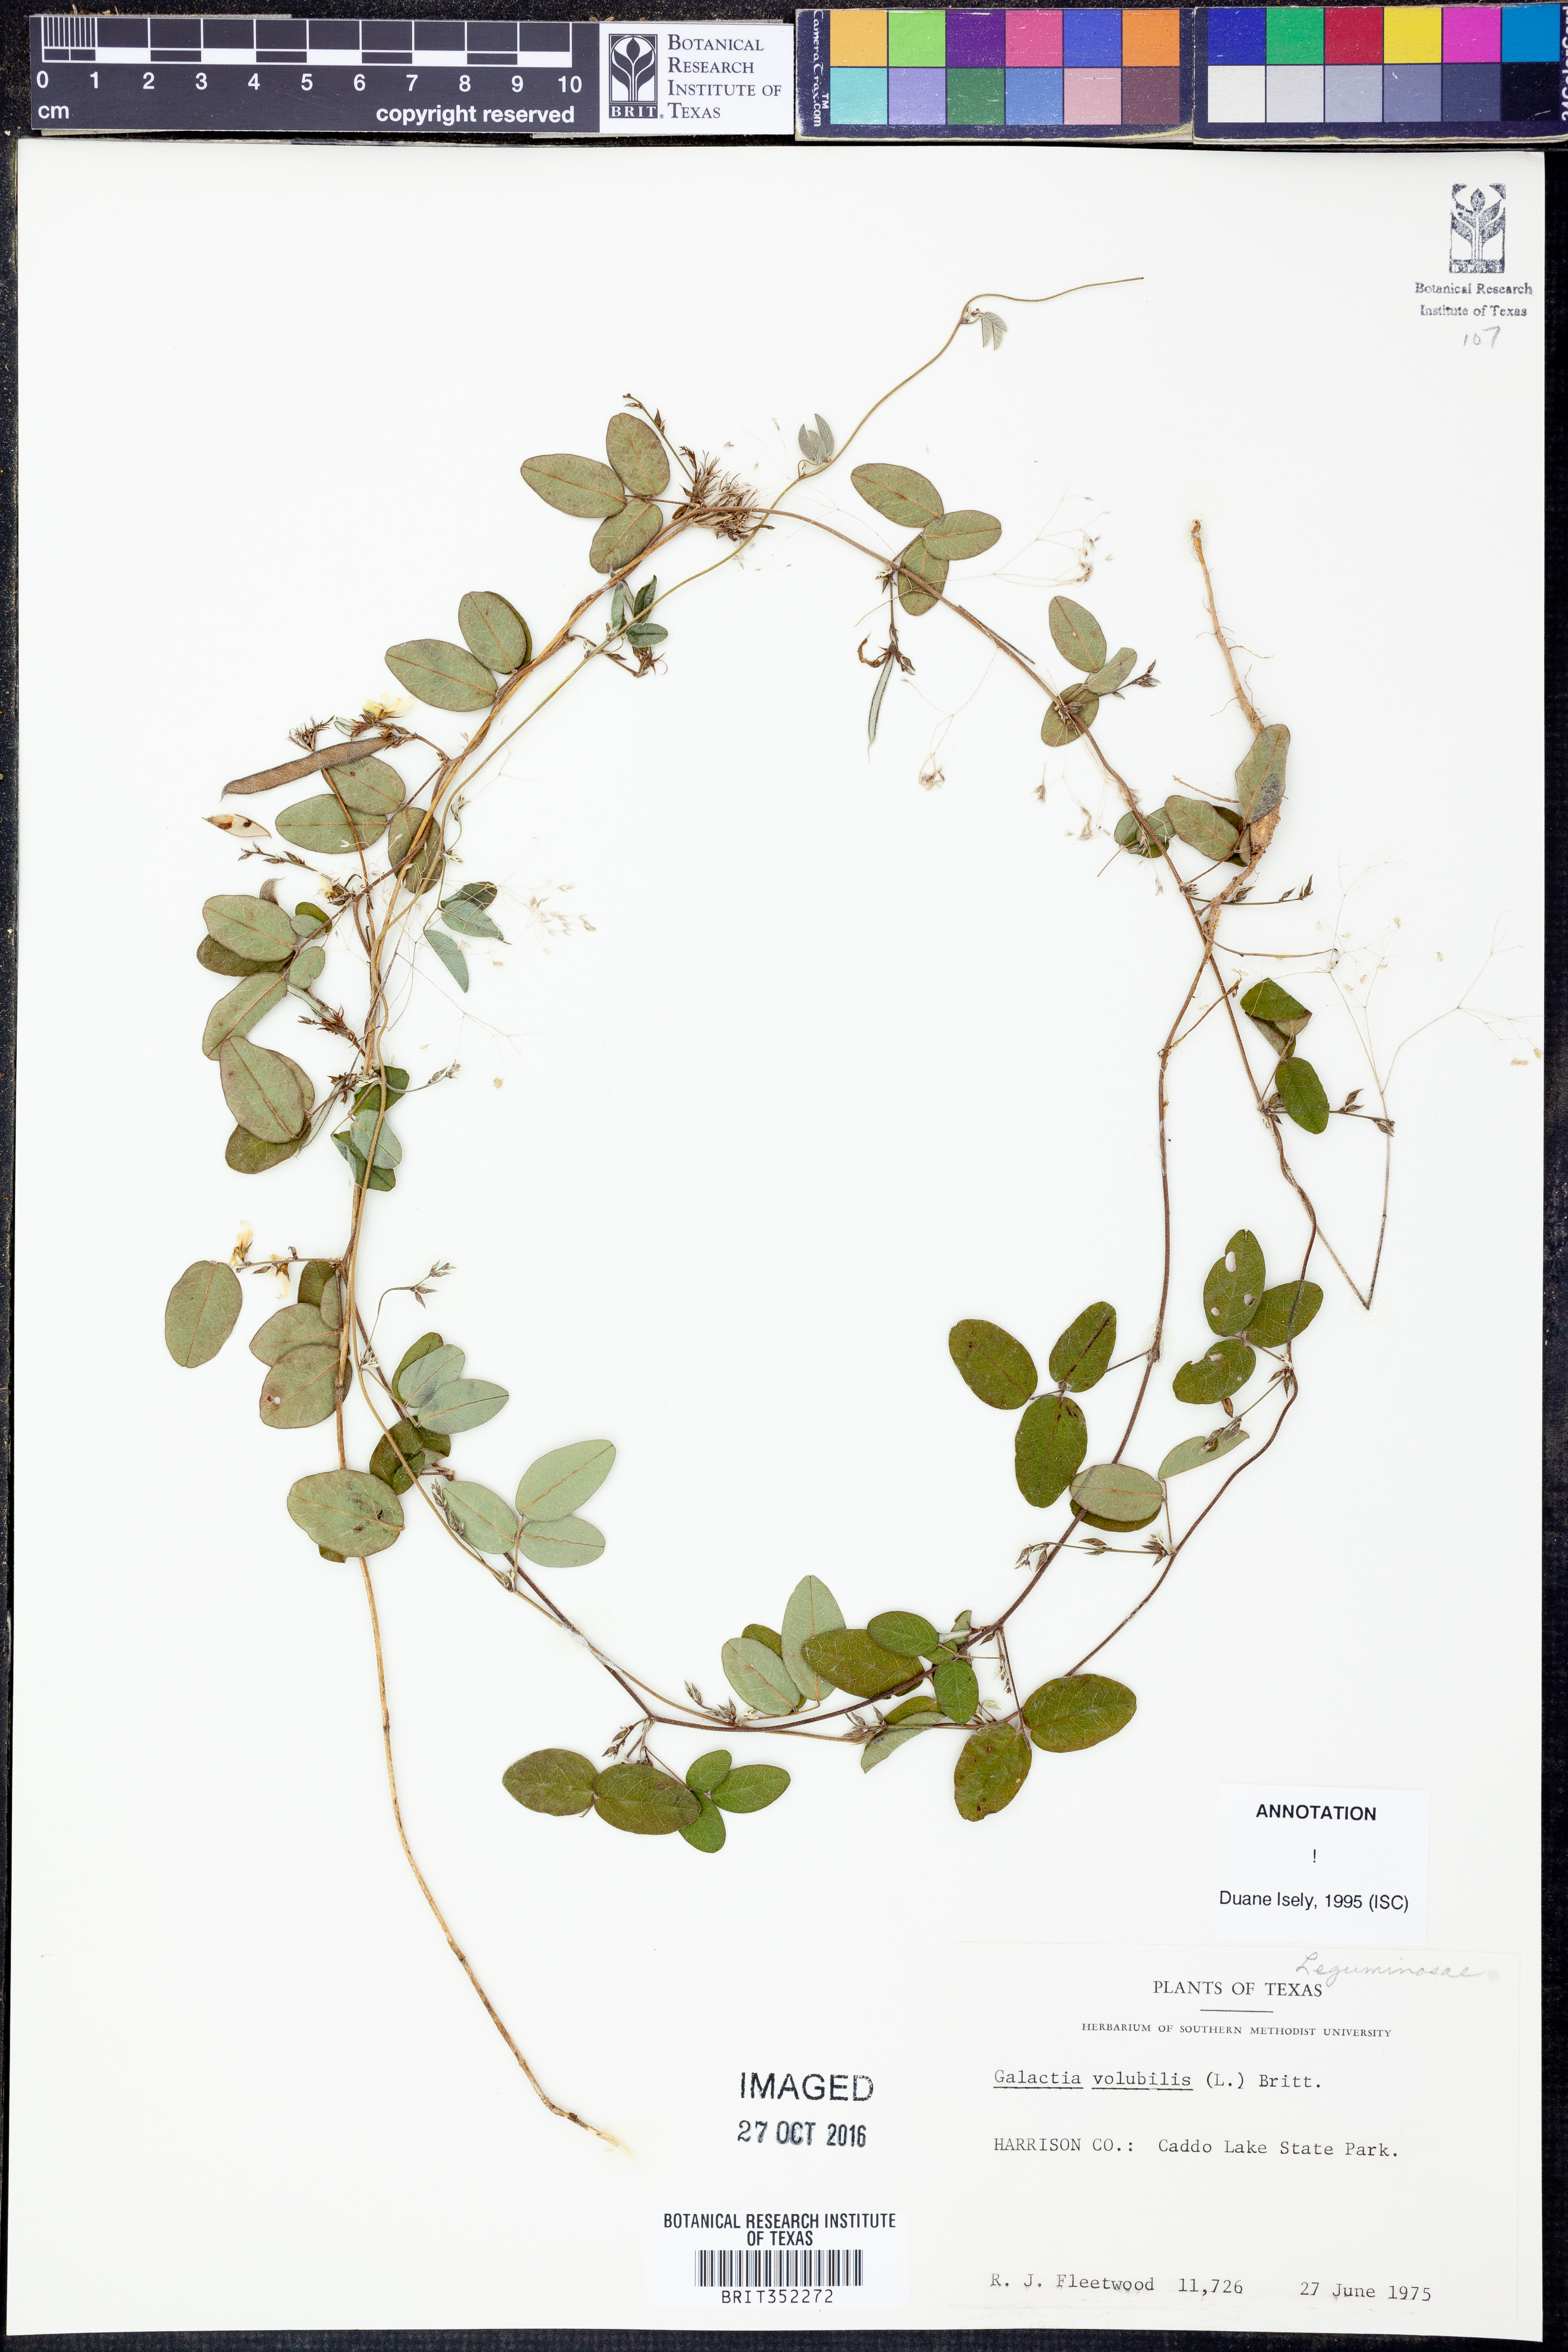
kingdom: Plantae
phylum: Tracheophyta
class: Magnoliopsida
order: Fabales
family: Fabaceae
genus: Galactia
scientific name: Galactia volubilis
